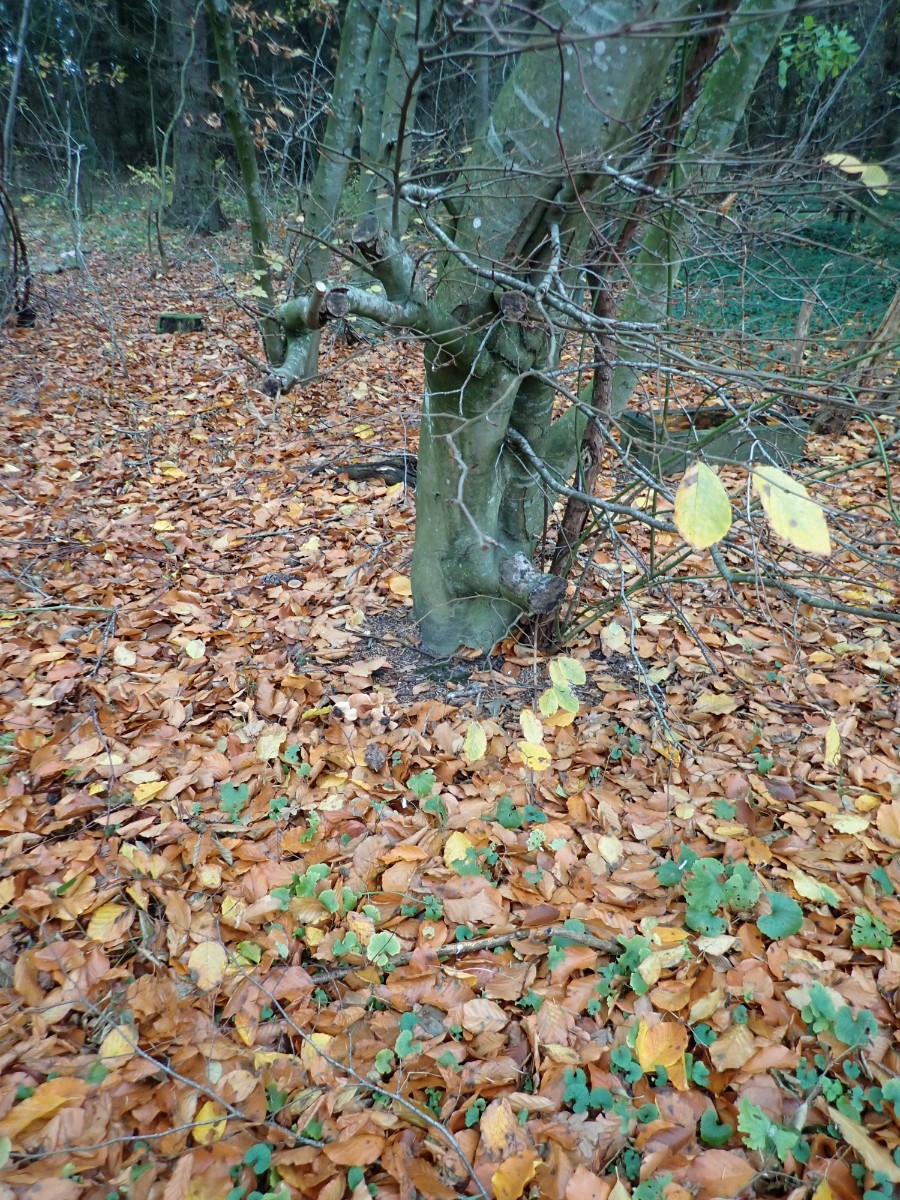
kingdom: Fungi
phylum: Basidiomycota
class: Agaricomycetes
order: Russulales
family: Russulaceae
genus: Lactarius
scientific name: Lactarius subdulcis
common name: sødlig mælkehat
